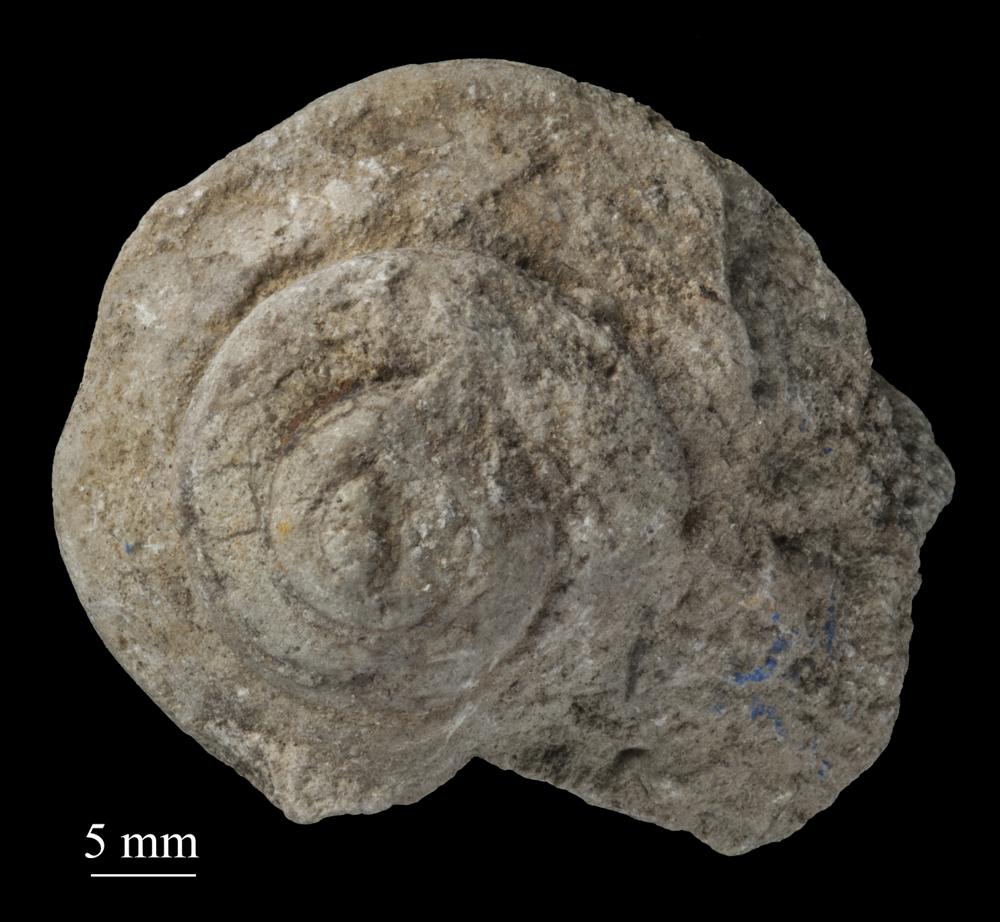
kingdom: Animalia
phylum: Mollusca
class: Gastropoda
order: Pleurotomariida
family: Pleurotomariidae
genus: Pleurotomaria
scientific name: Pleurotomaria
